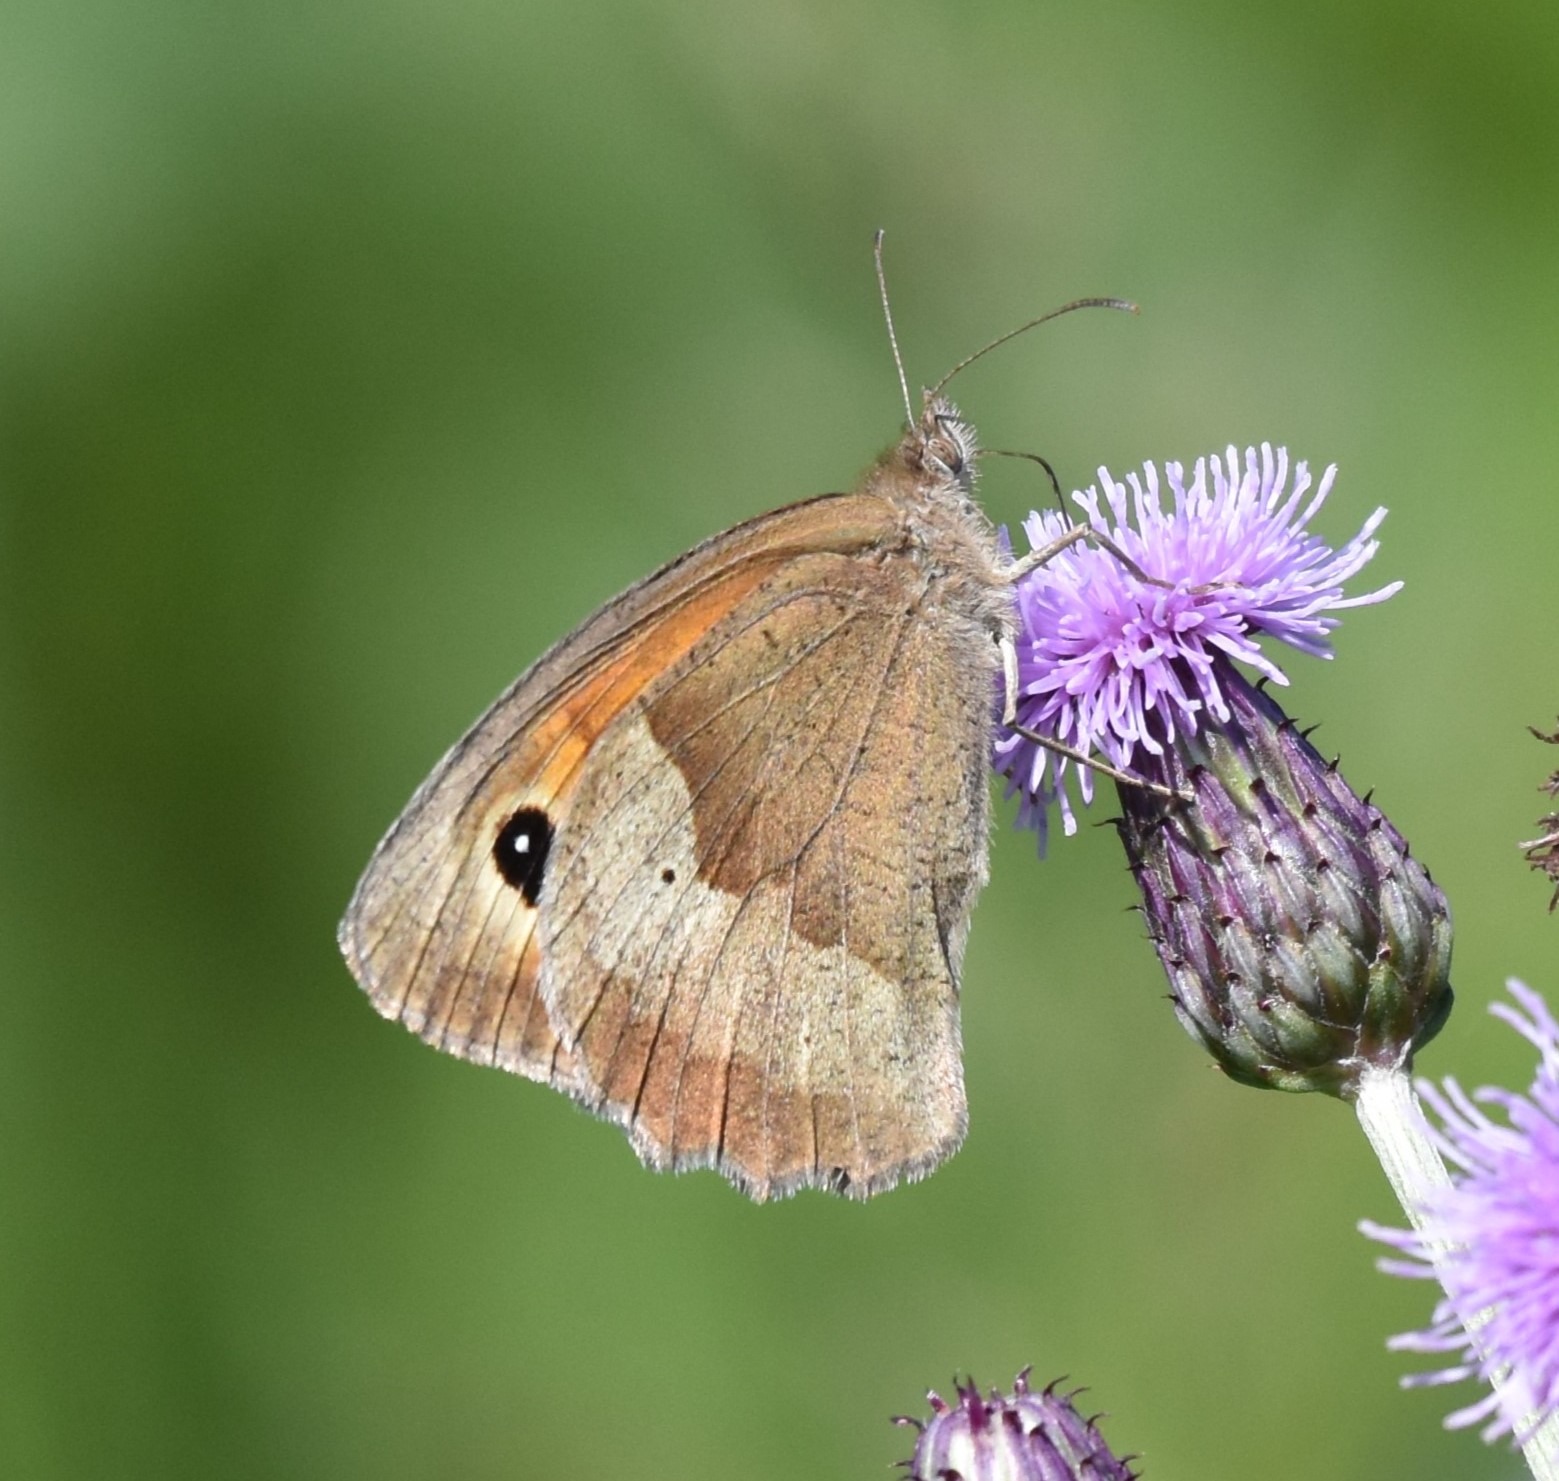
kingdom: Animalia
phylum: Arthropoda
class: Insecta
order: Lepidoptera
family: Nymphalidae
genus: Maniola
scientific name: Maniola jurtina
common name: Græsrandøje
